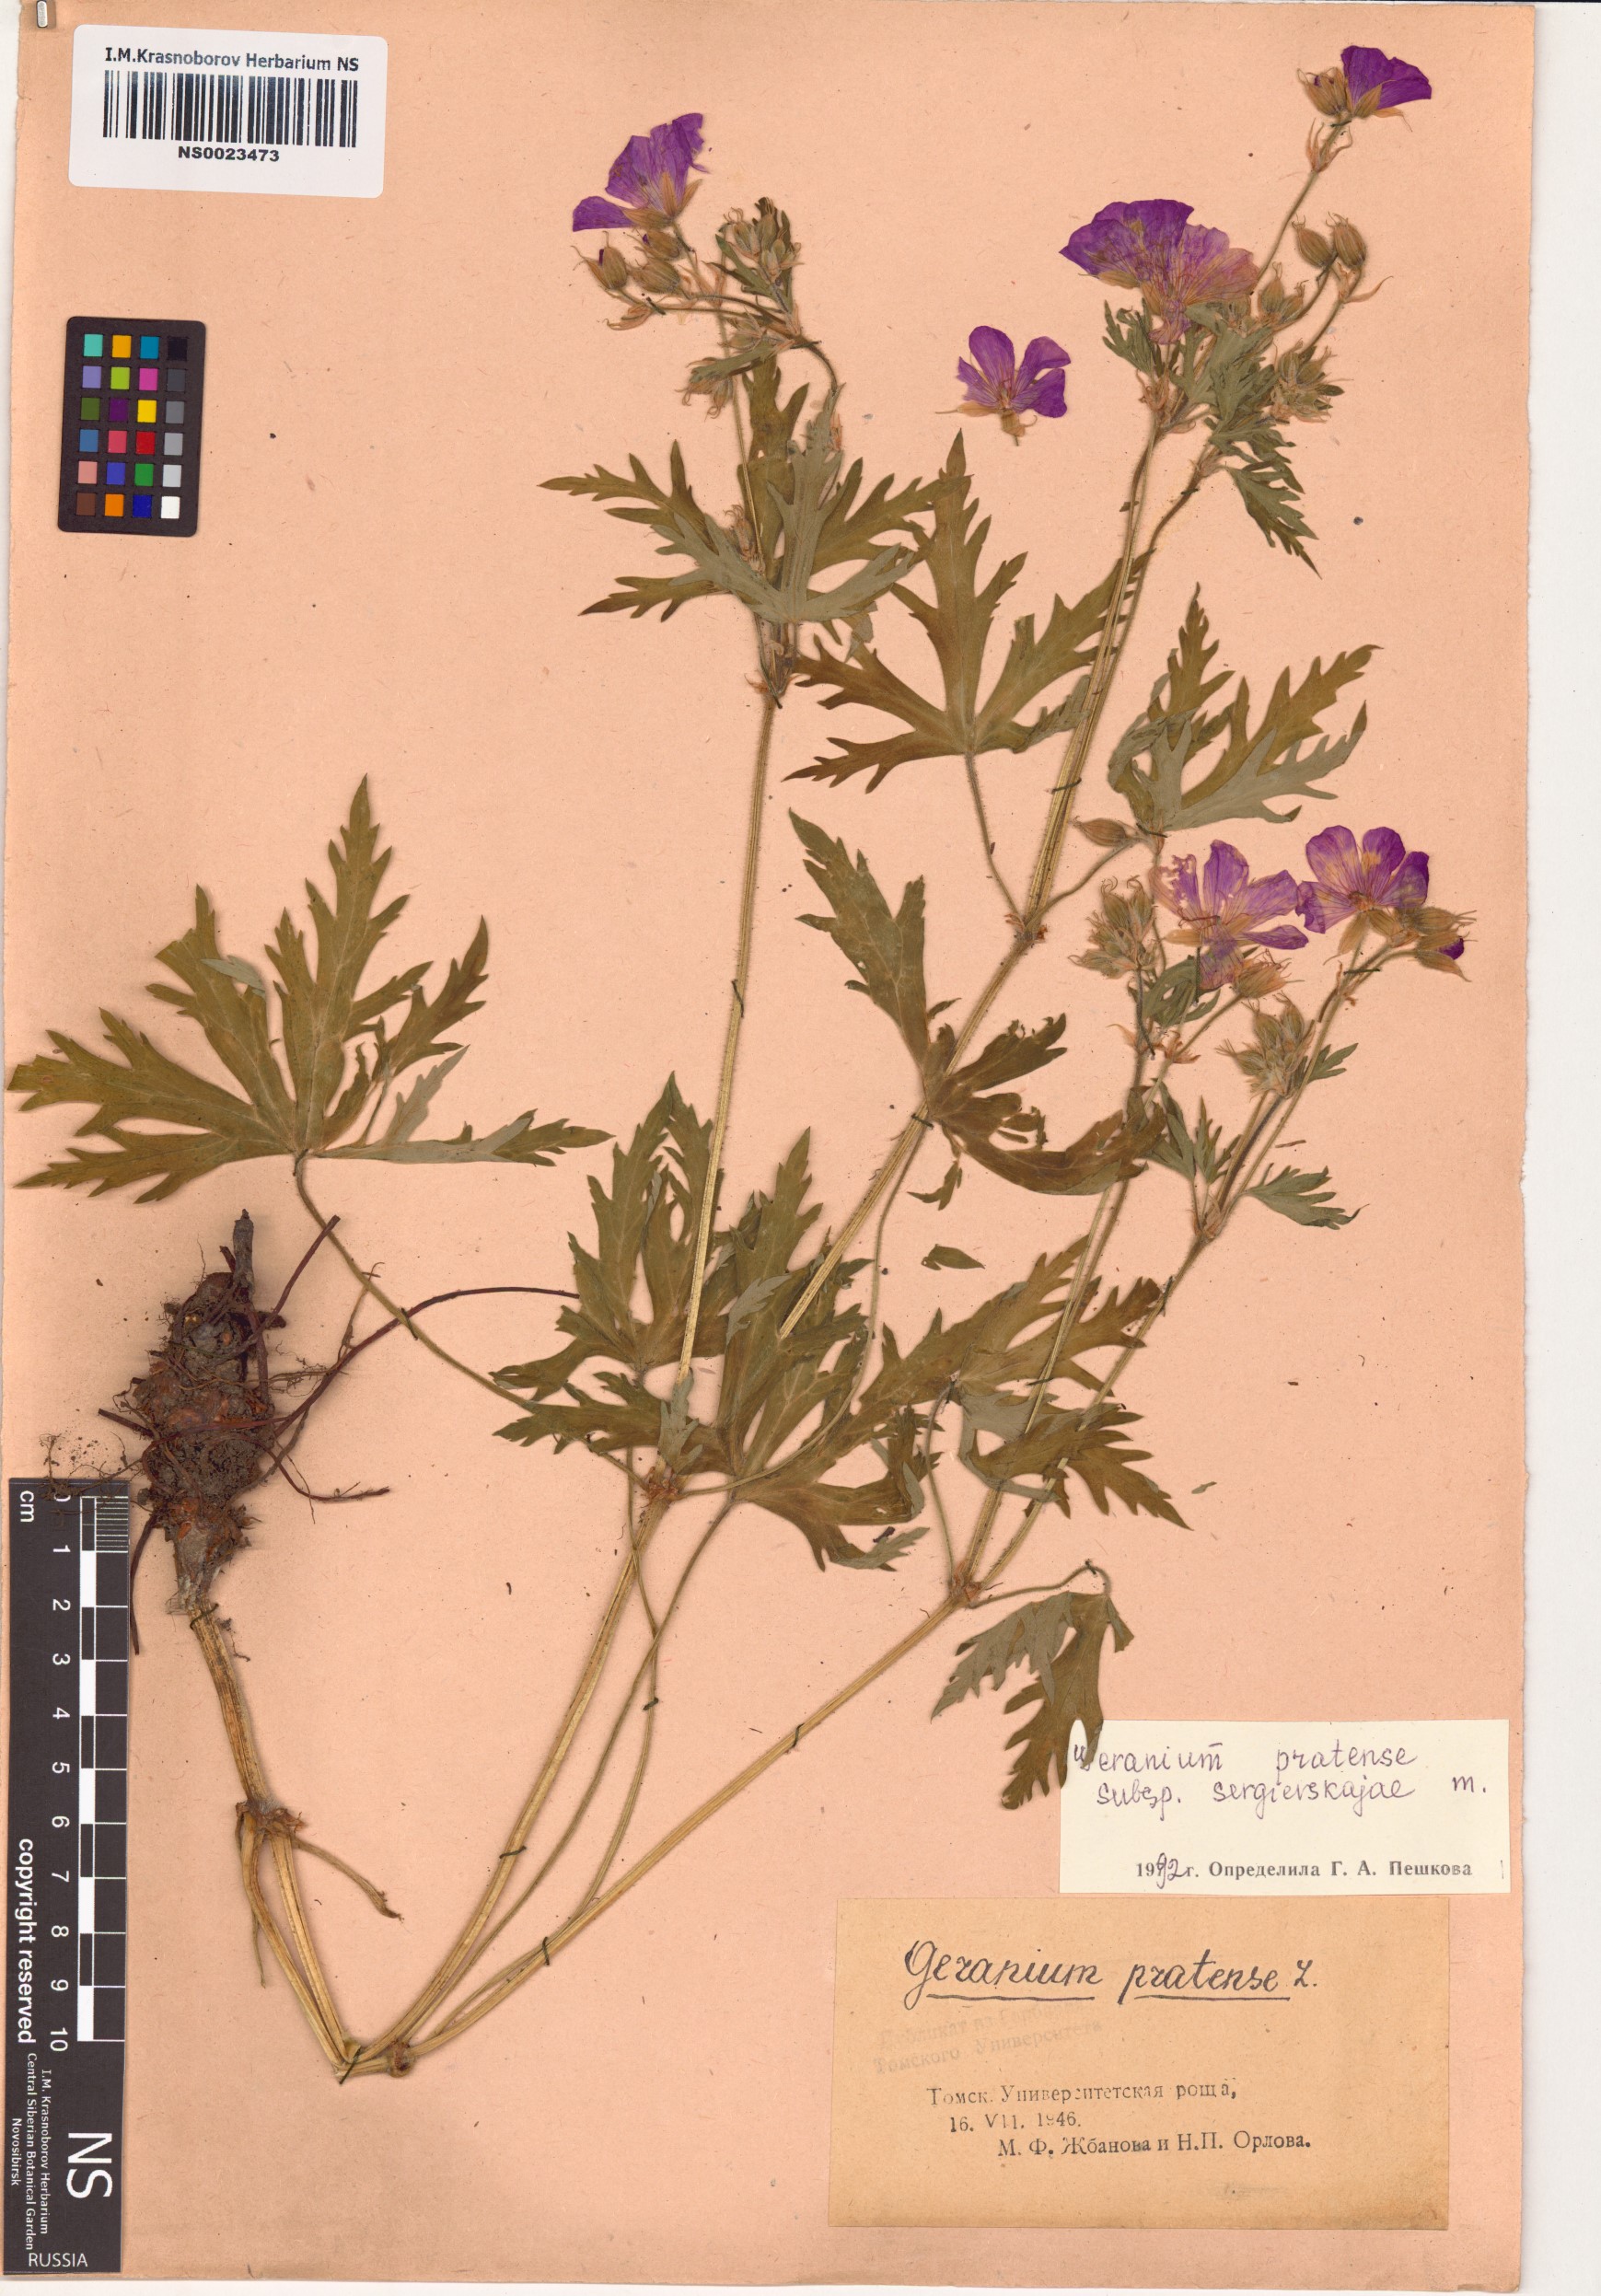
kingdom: Plantae
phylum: Tracheophyta
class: Magnoliopsida
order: Geraniales
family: Geraniaceae
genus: Geranium
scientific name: Geranium pratense
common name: Meadow crane's-bill
